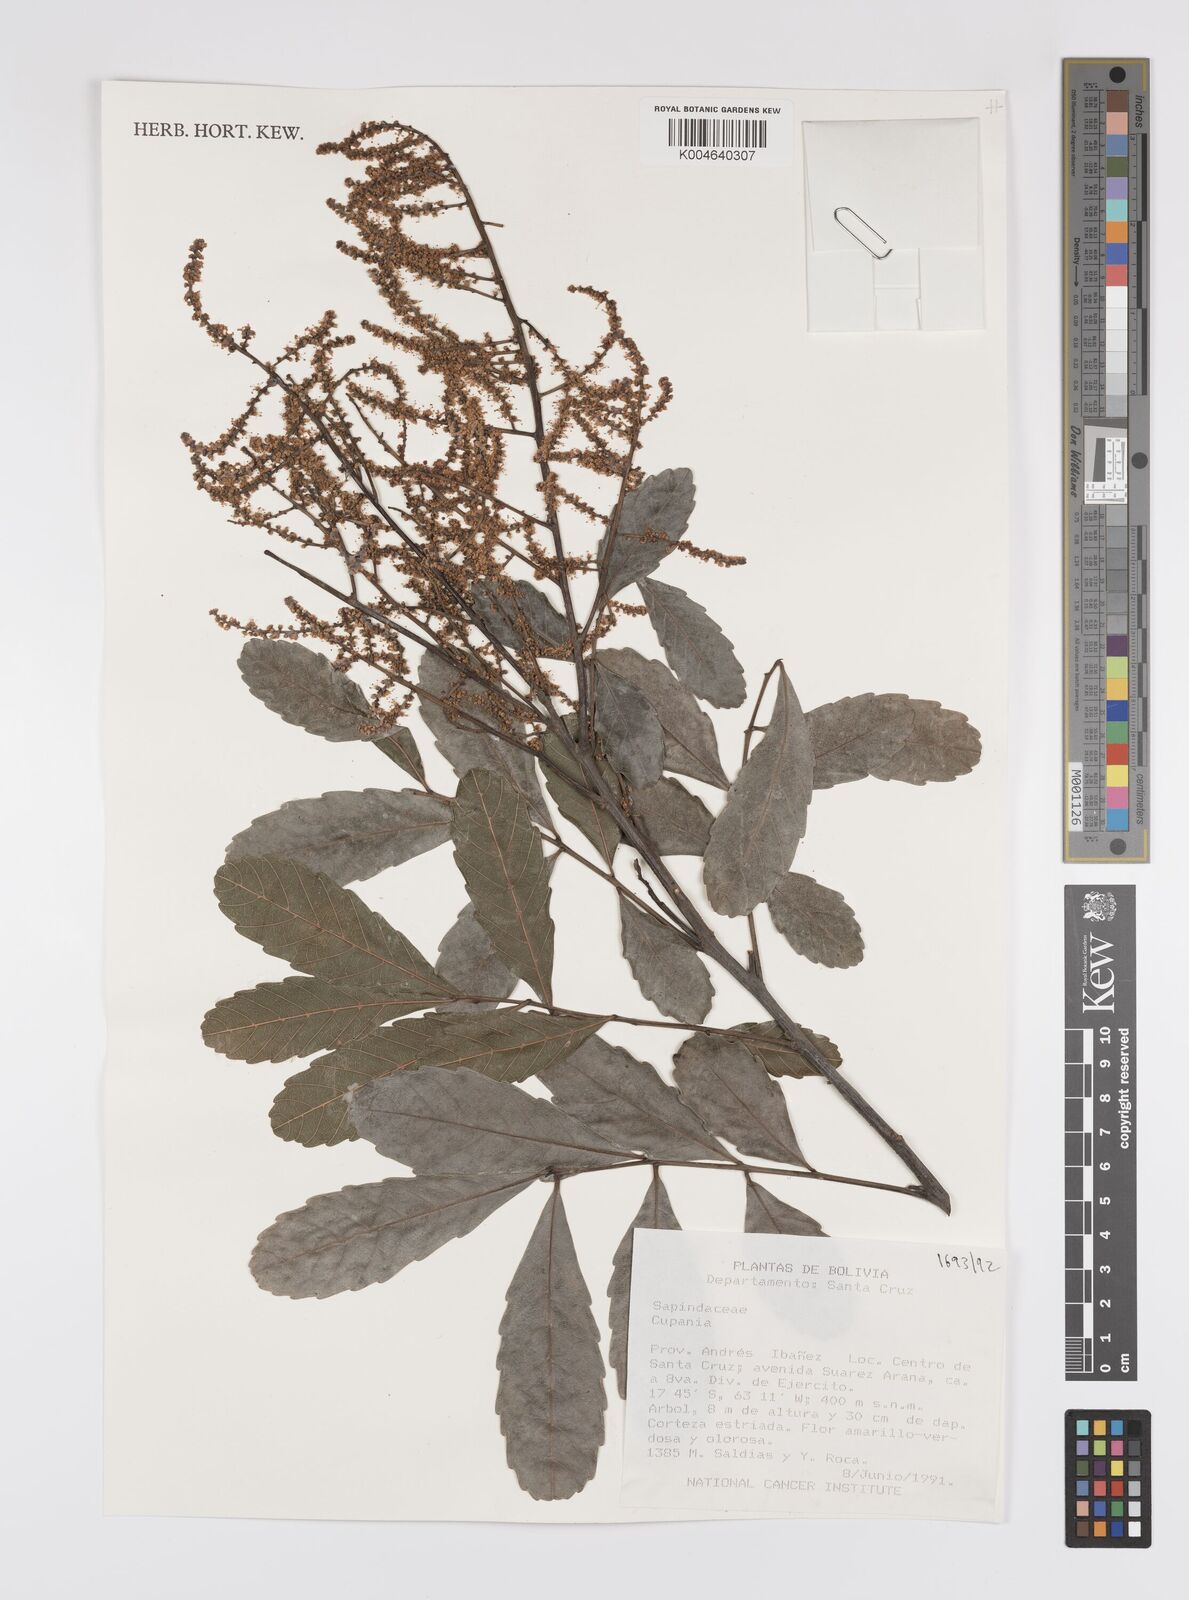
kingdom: Plantae
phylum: Tracheophyta
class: Magnoliopsida
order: Sapindales
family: Sapindaceae
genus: Cupania
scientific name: Cupania
